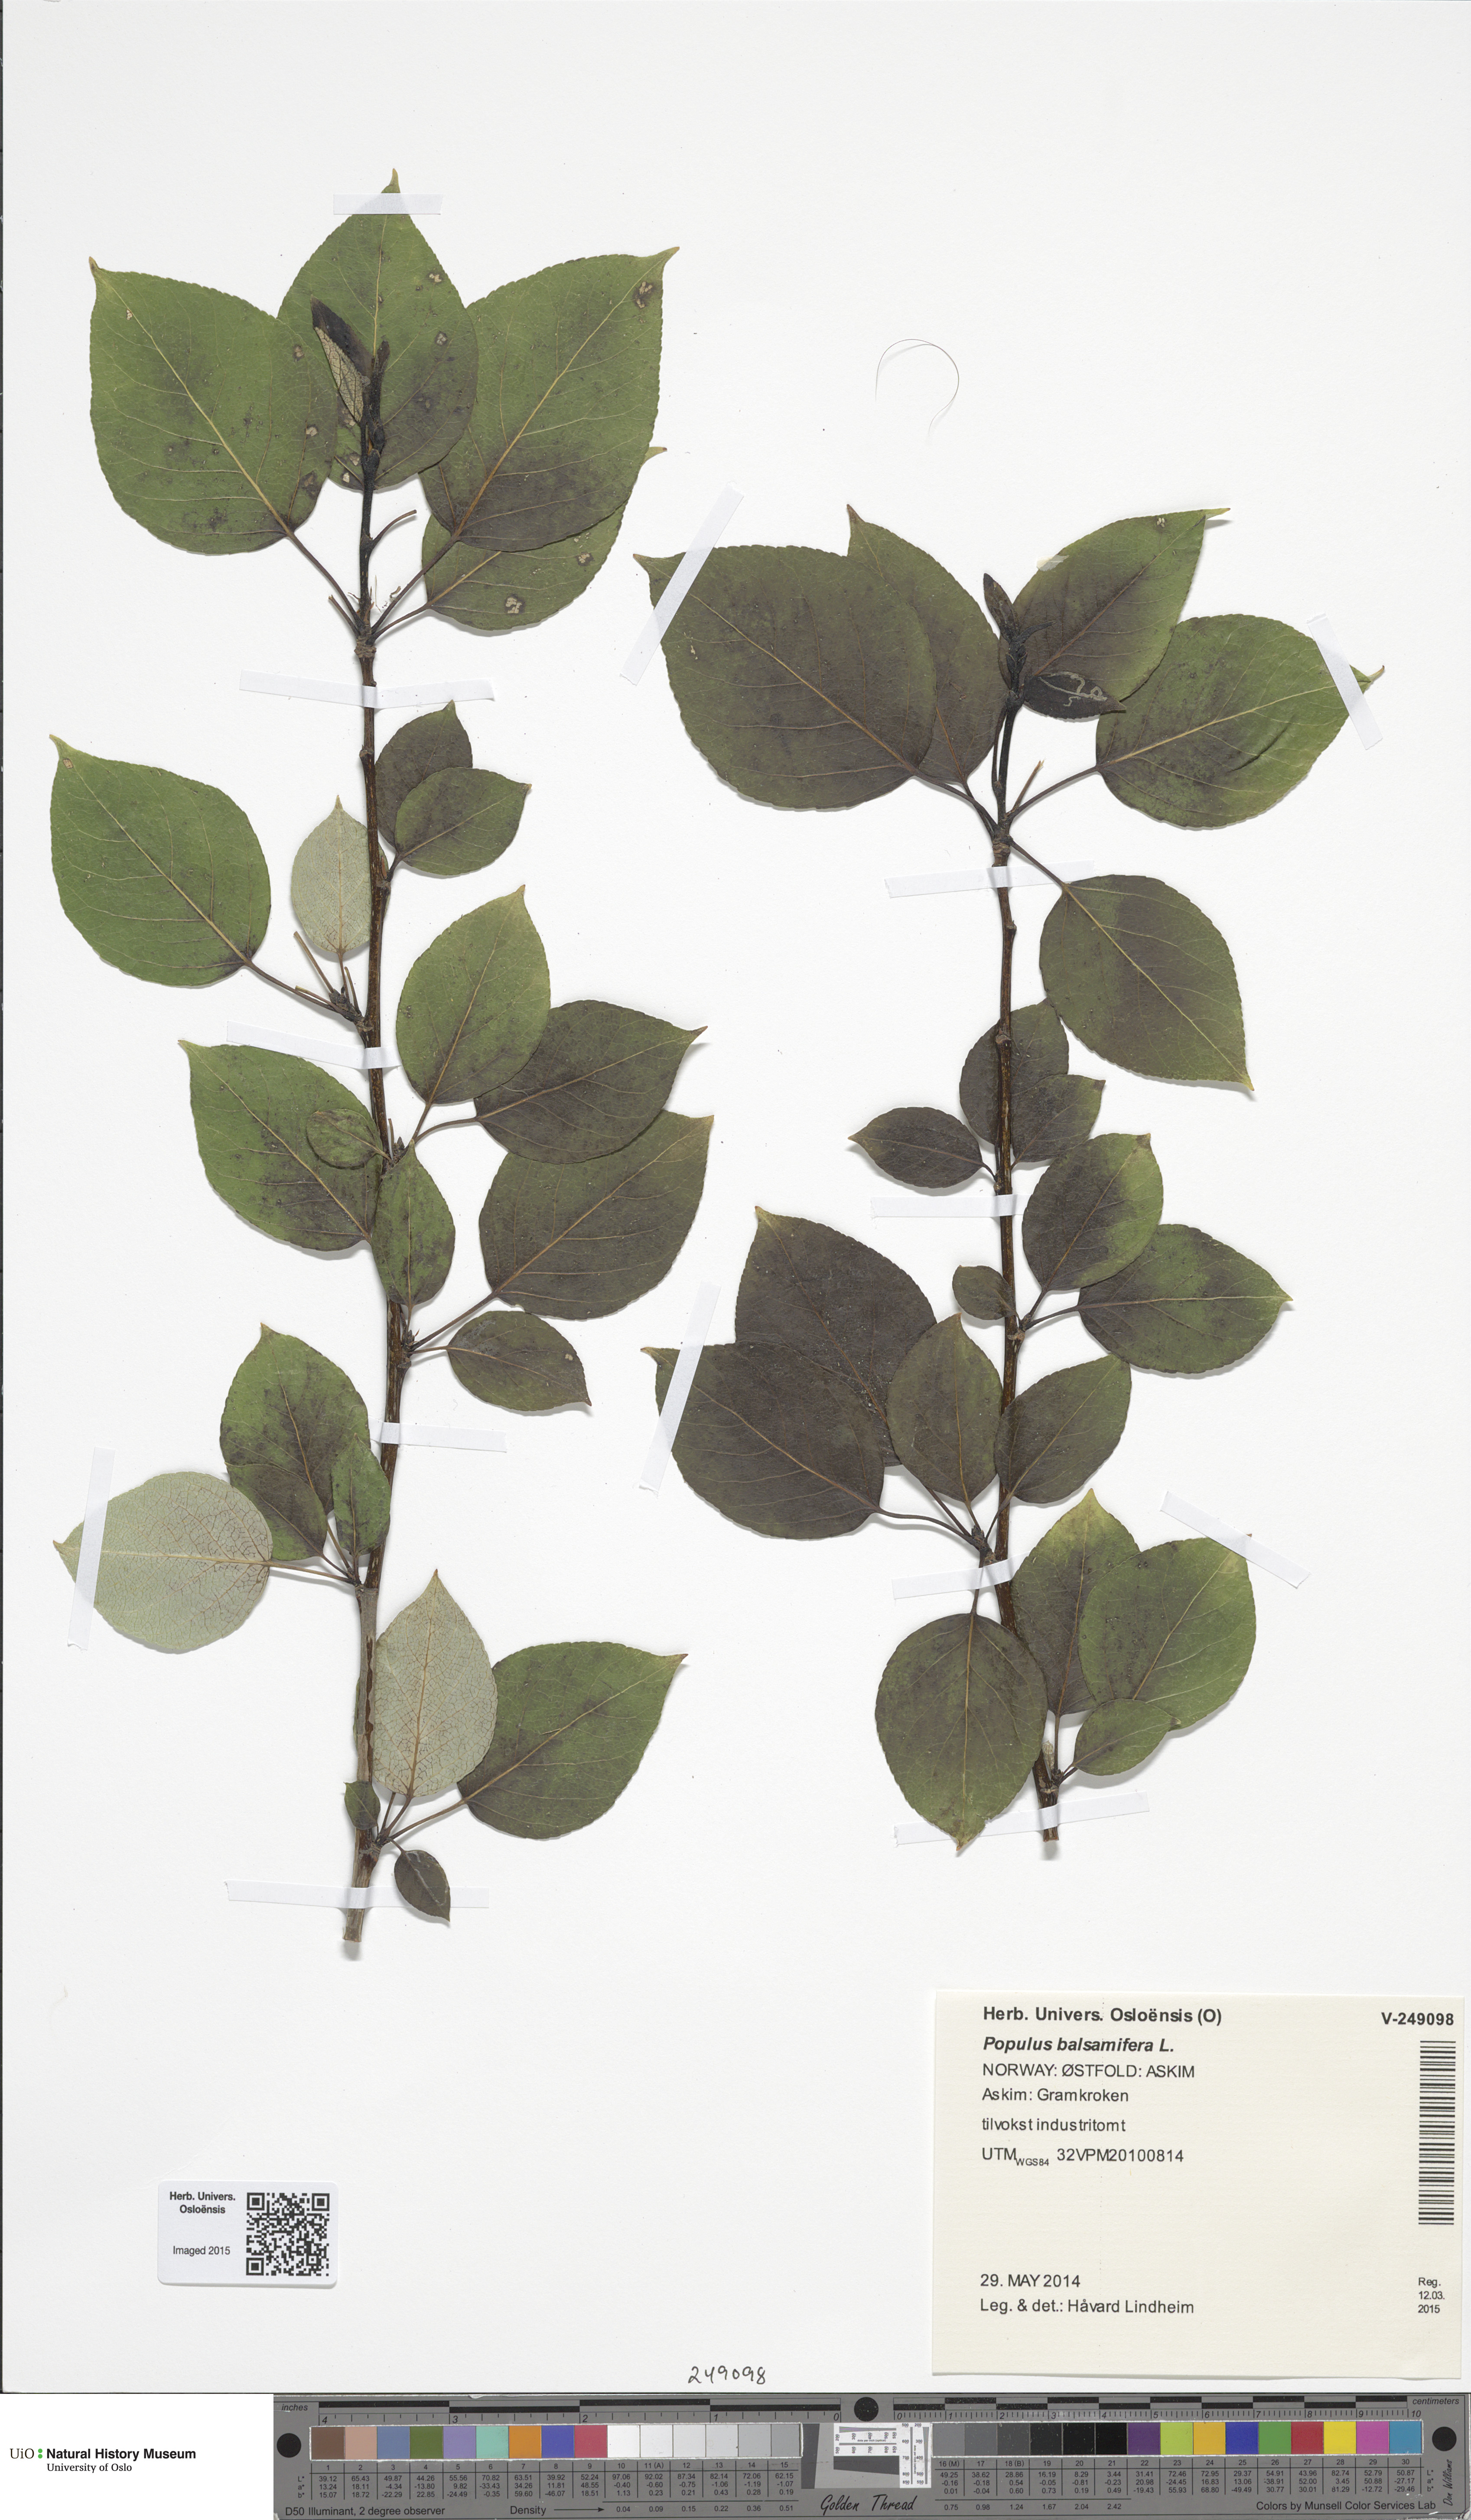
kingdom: Plantae
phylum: Tracheophyta
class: Magnoliopsida
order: Malpighiales
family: Salicaceae
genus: Populus
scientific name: Populus trichocarpa
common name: Black cottonwood
